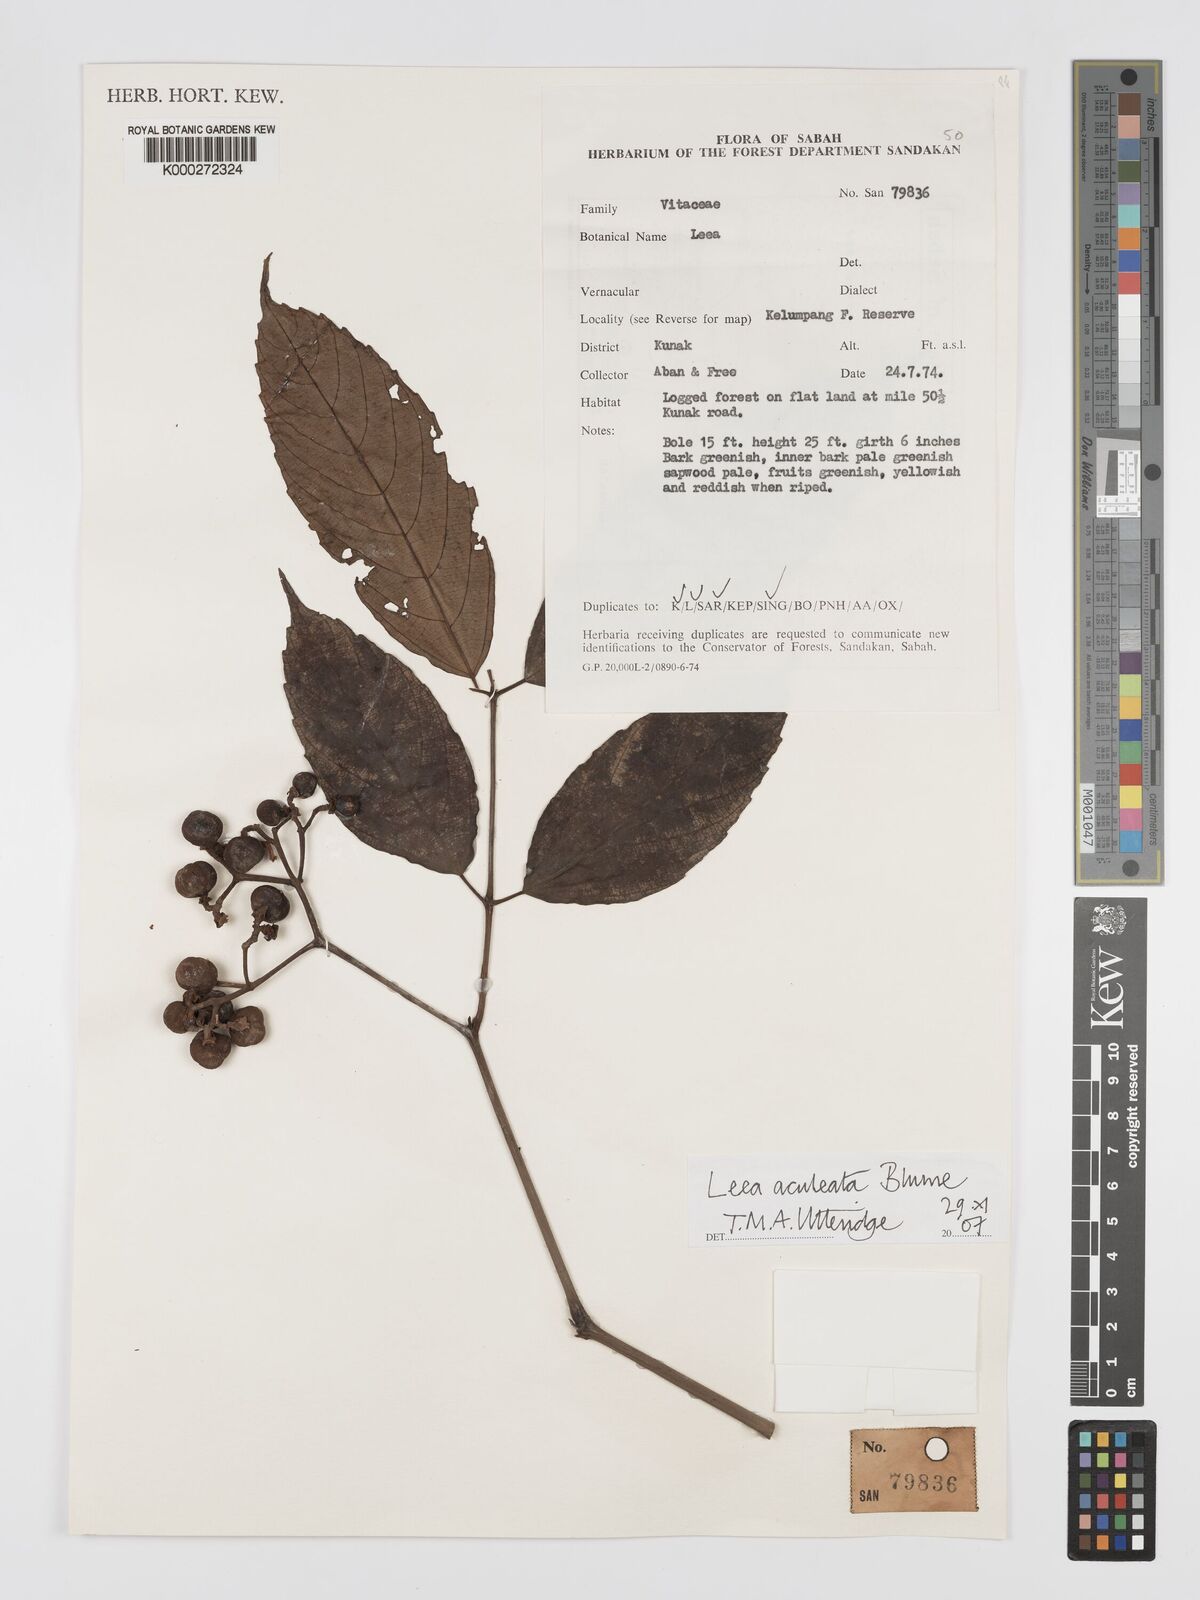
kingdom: Plantae
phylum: Tracheophyta
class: Magnoliopsida
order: Vitales
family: Vitaceae
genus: Leea
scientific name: Leea aculeata
